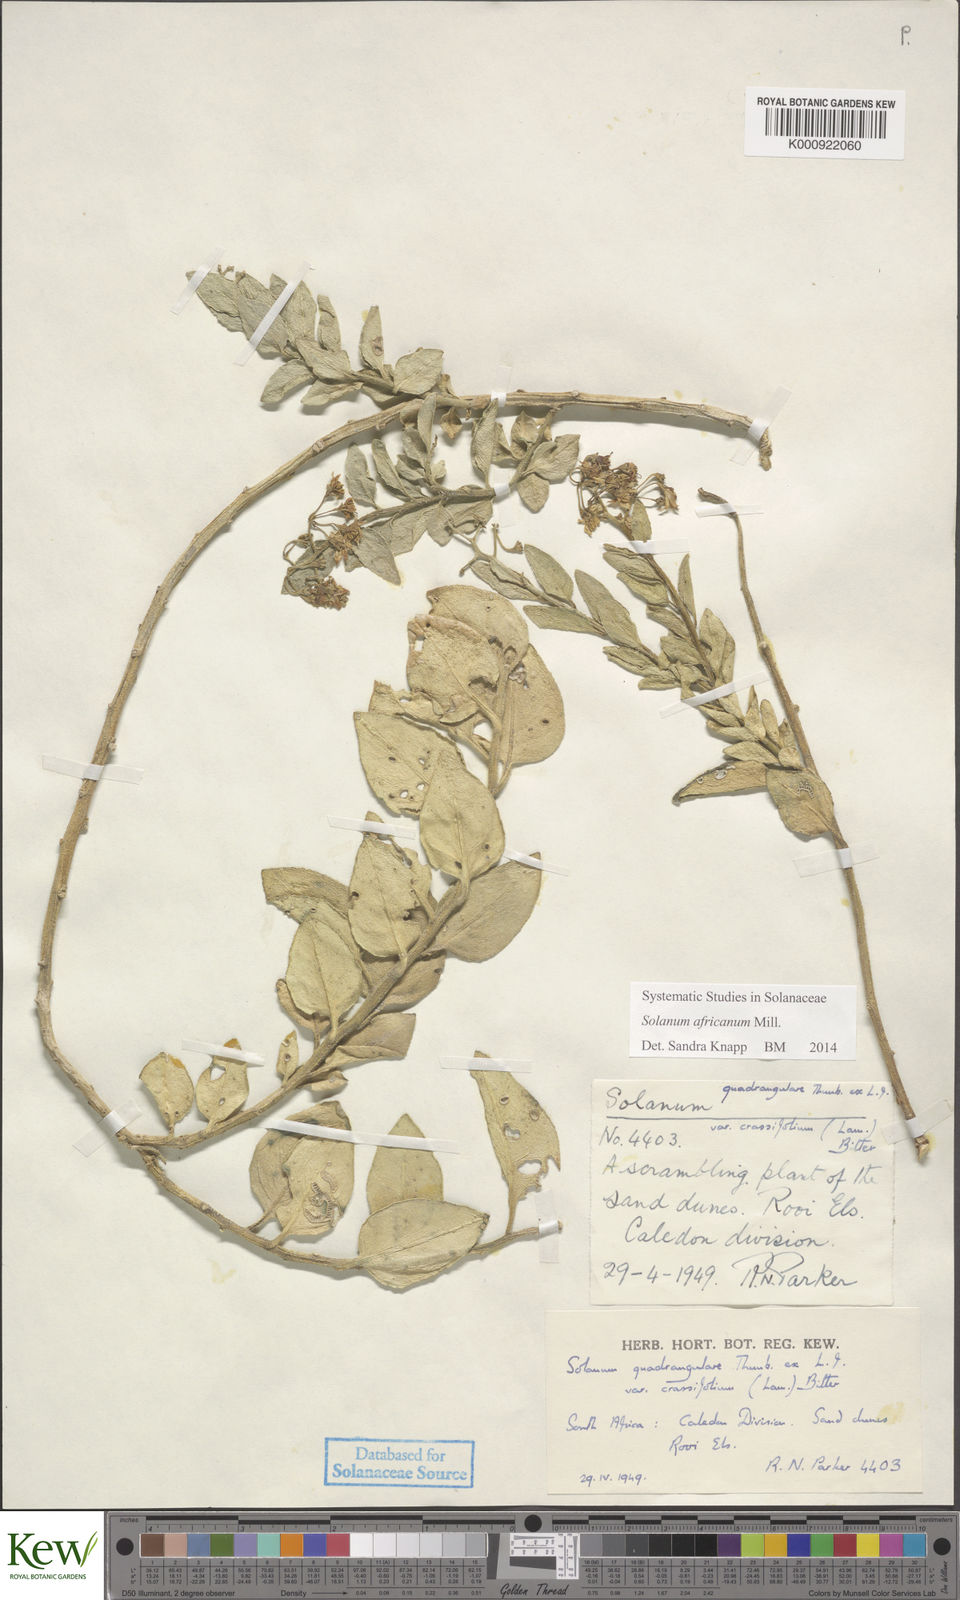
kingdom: Plantae
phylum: Tracheophyta
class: Magnoliopsida
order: Solanales
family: Solanaceae
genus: Solanum
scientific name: Solanum africanum
